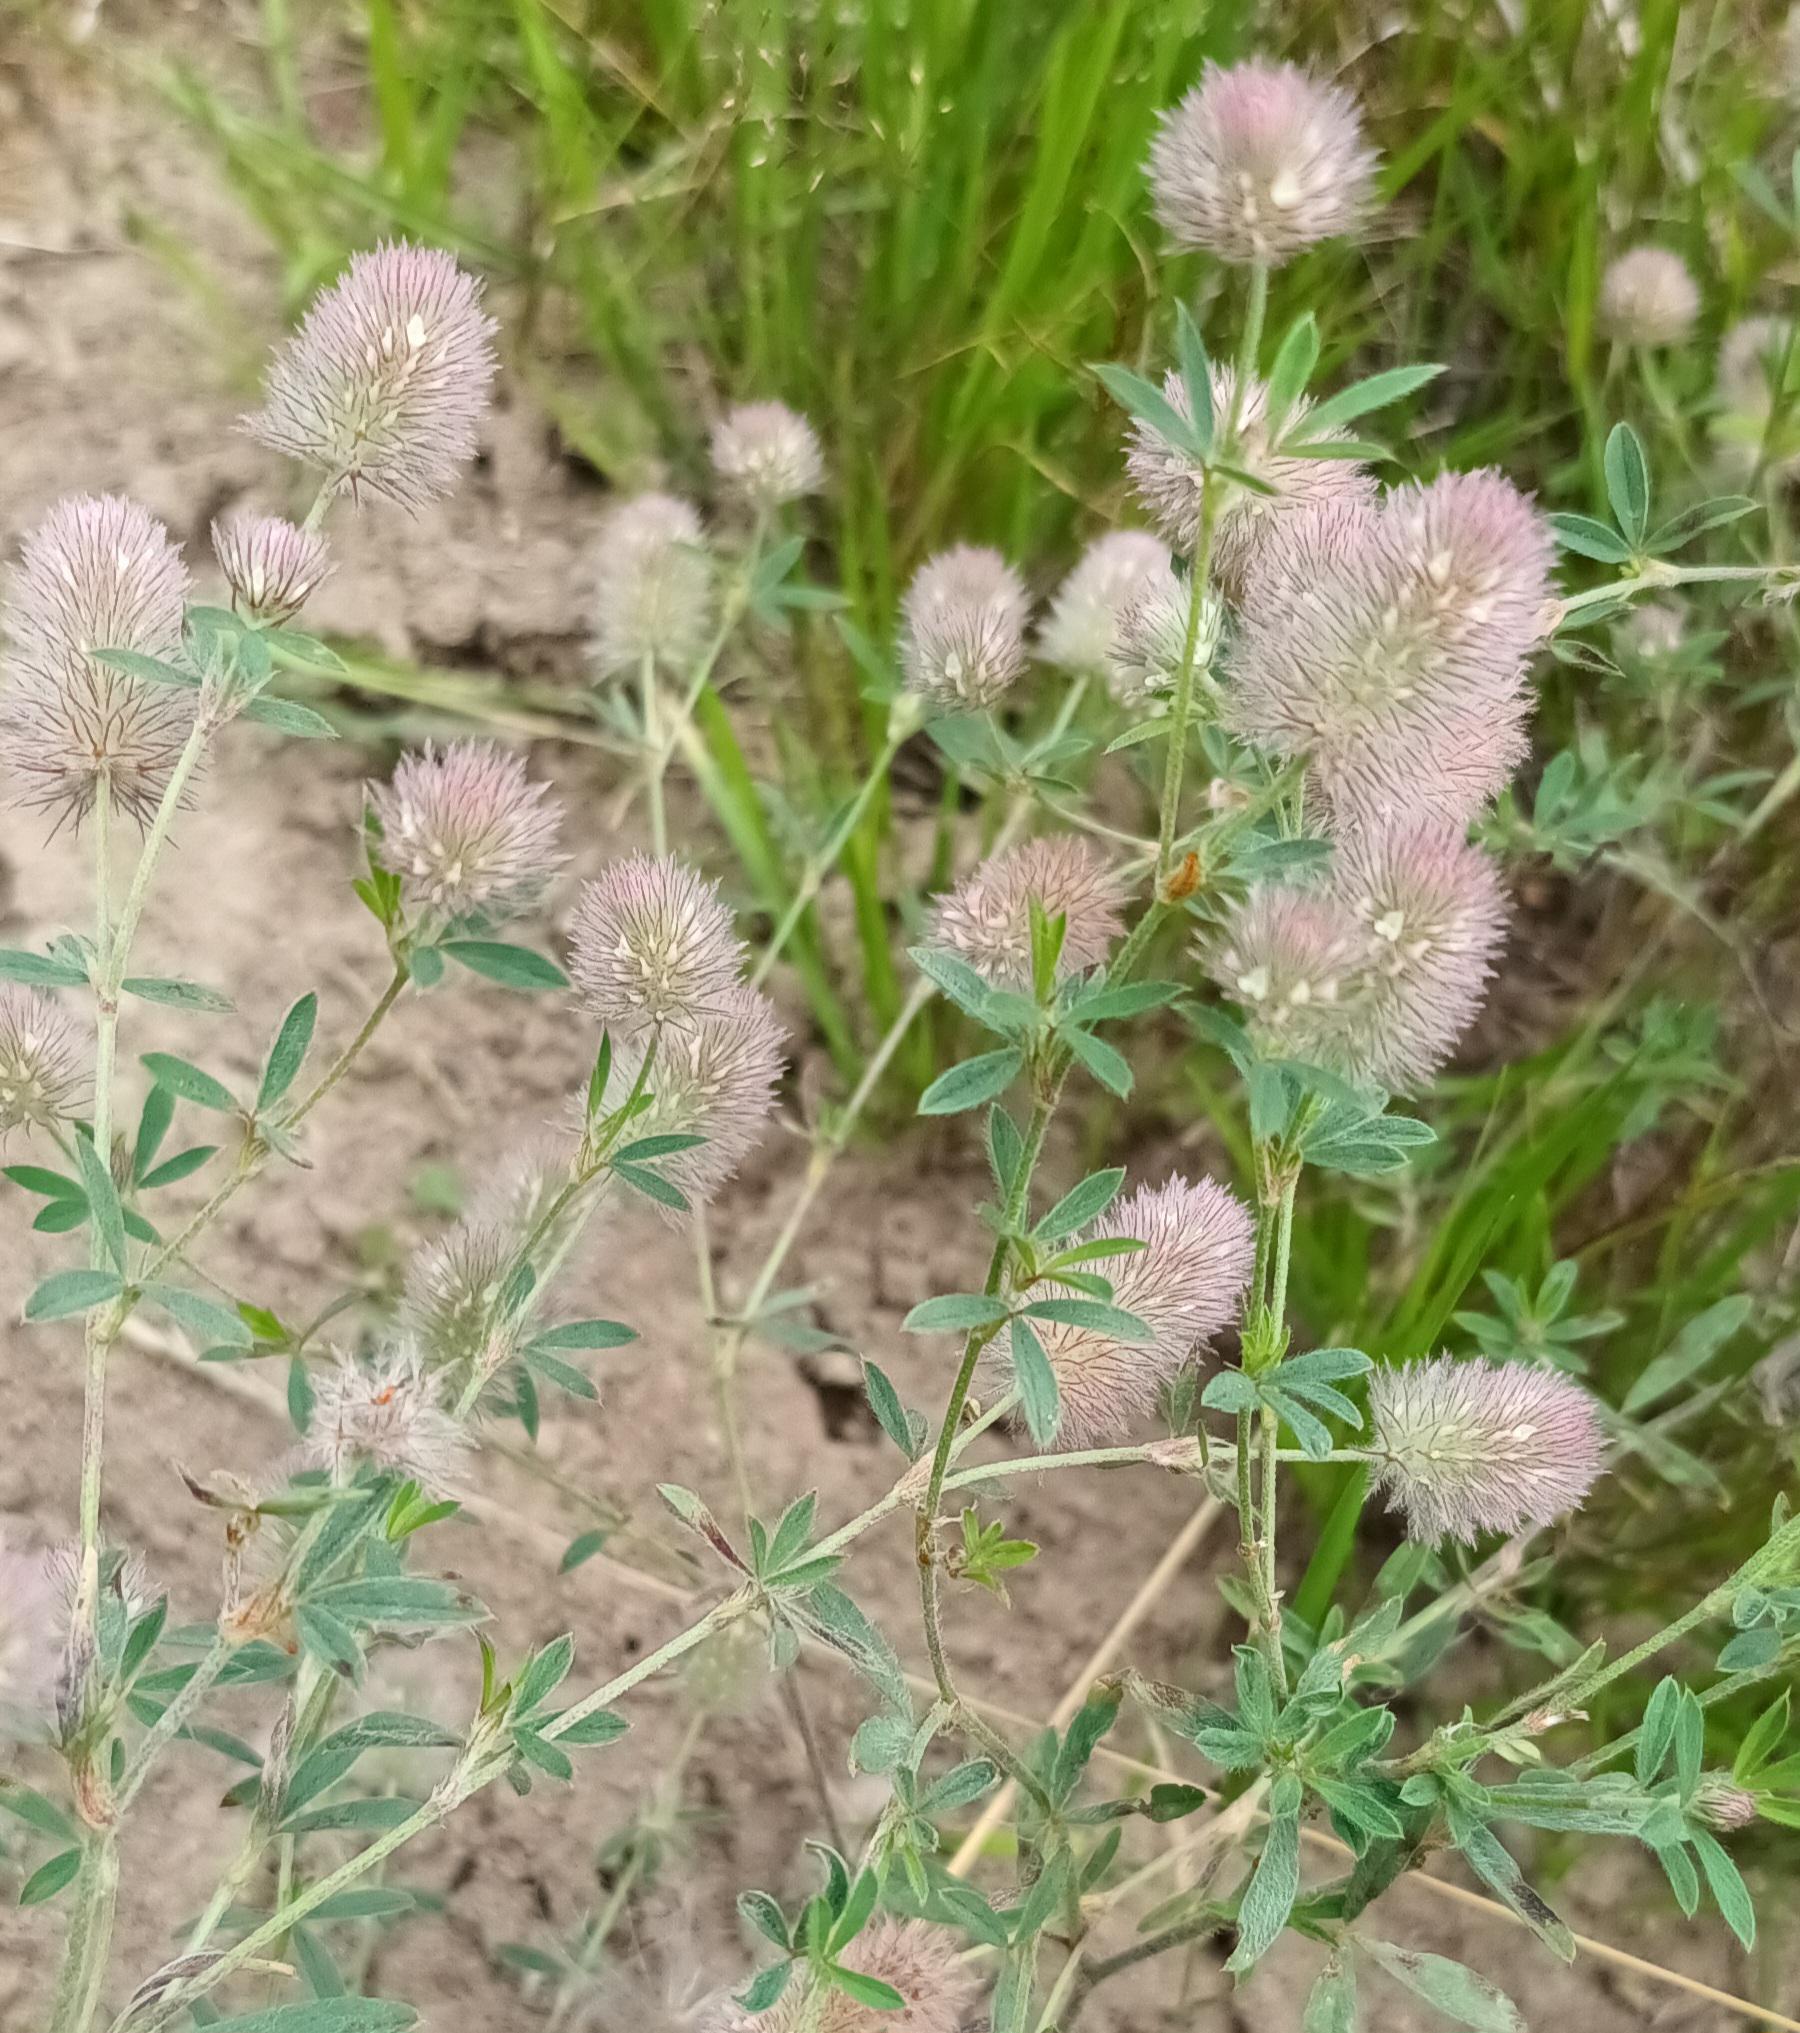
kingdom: Plantae
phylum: Tracheophyta
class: Magnoliopsida
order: Fabales
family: Fabaceae
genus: Trifolium
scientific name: Trifolium arvense
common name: Hare-kløver
